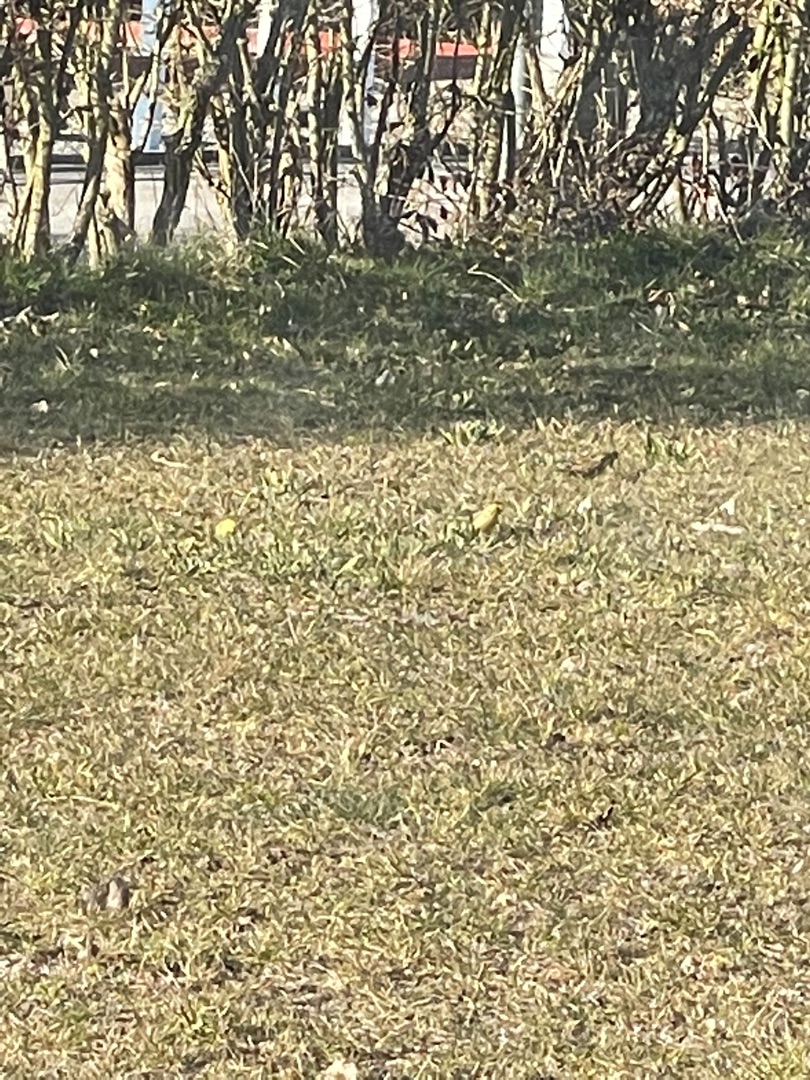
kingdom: Animalia
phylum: Chordata
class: Aves
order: Passeriformes
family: Fringillidae
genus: Spinus
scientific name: Spinus spinus
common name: Grønsisken
